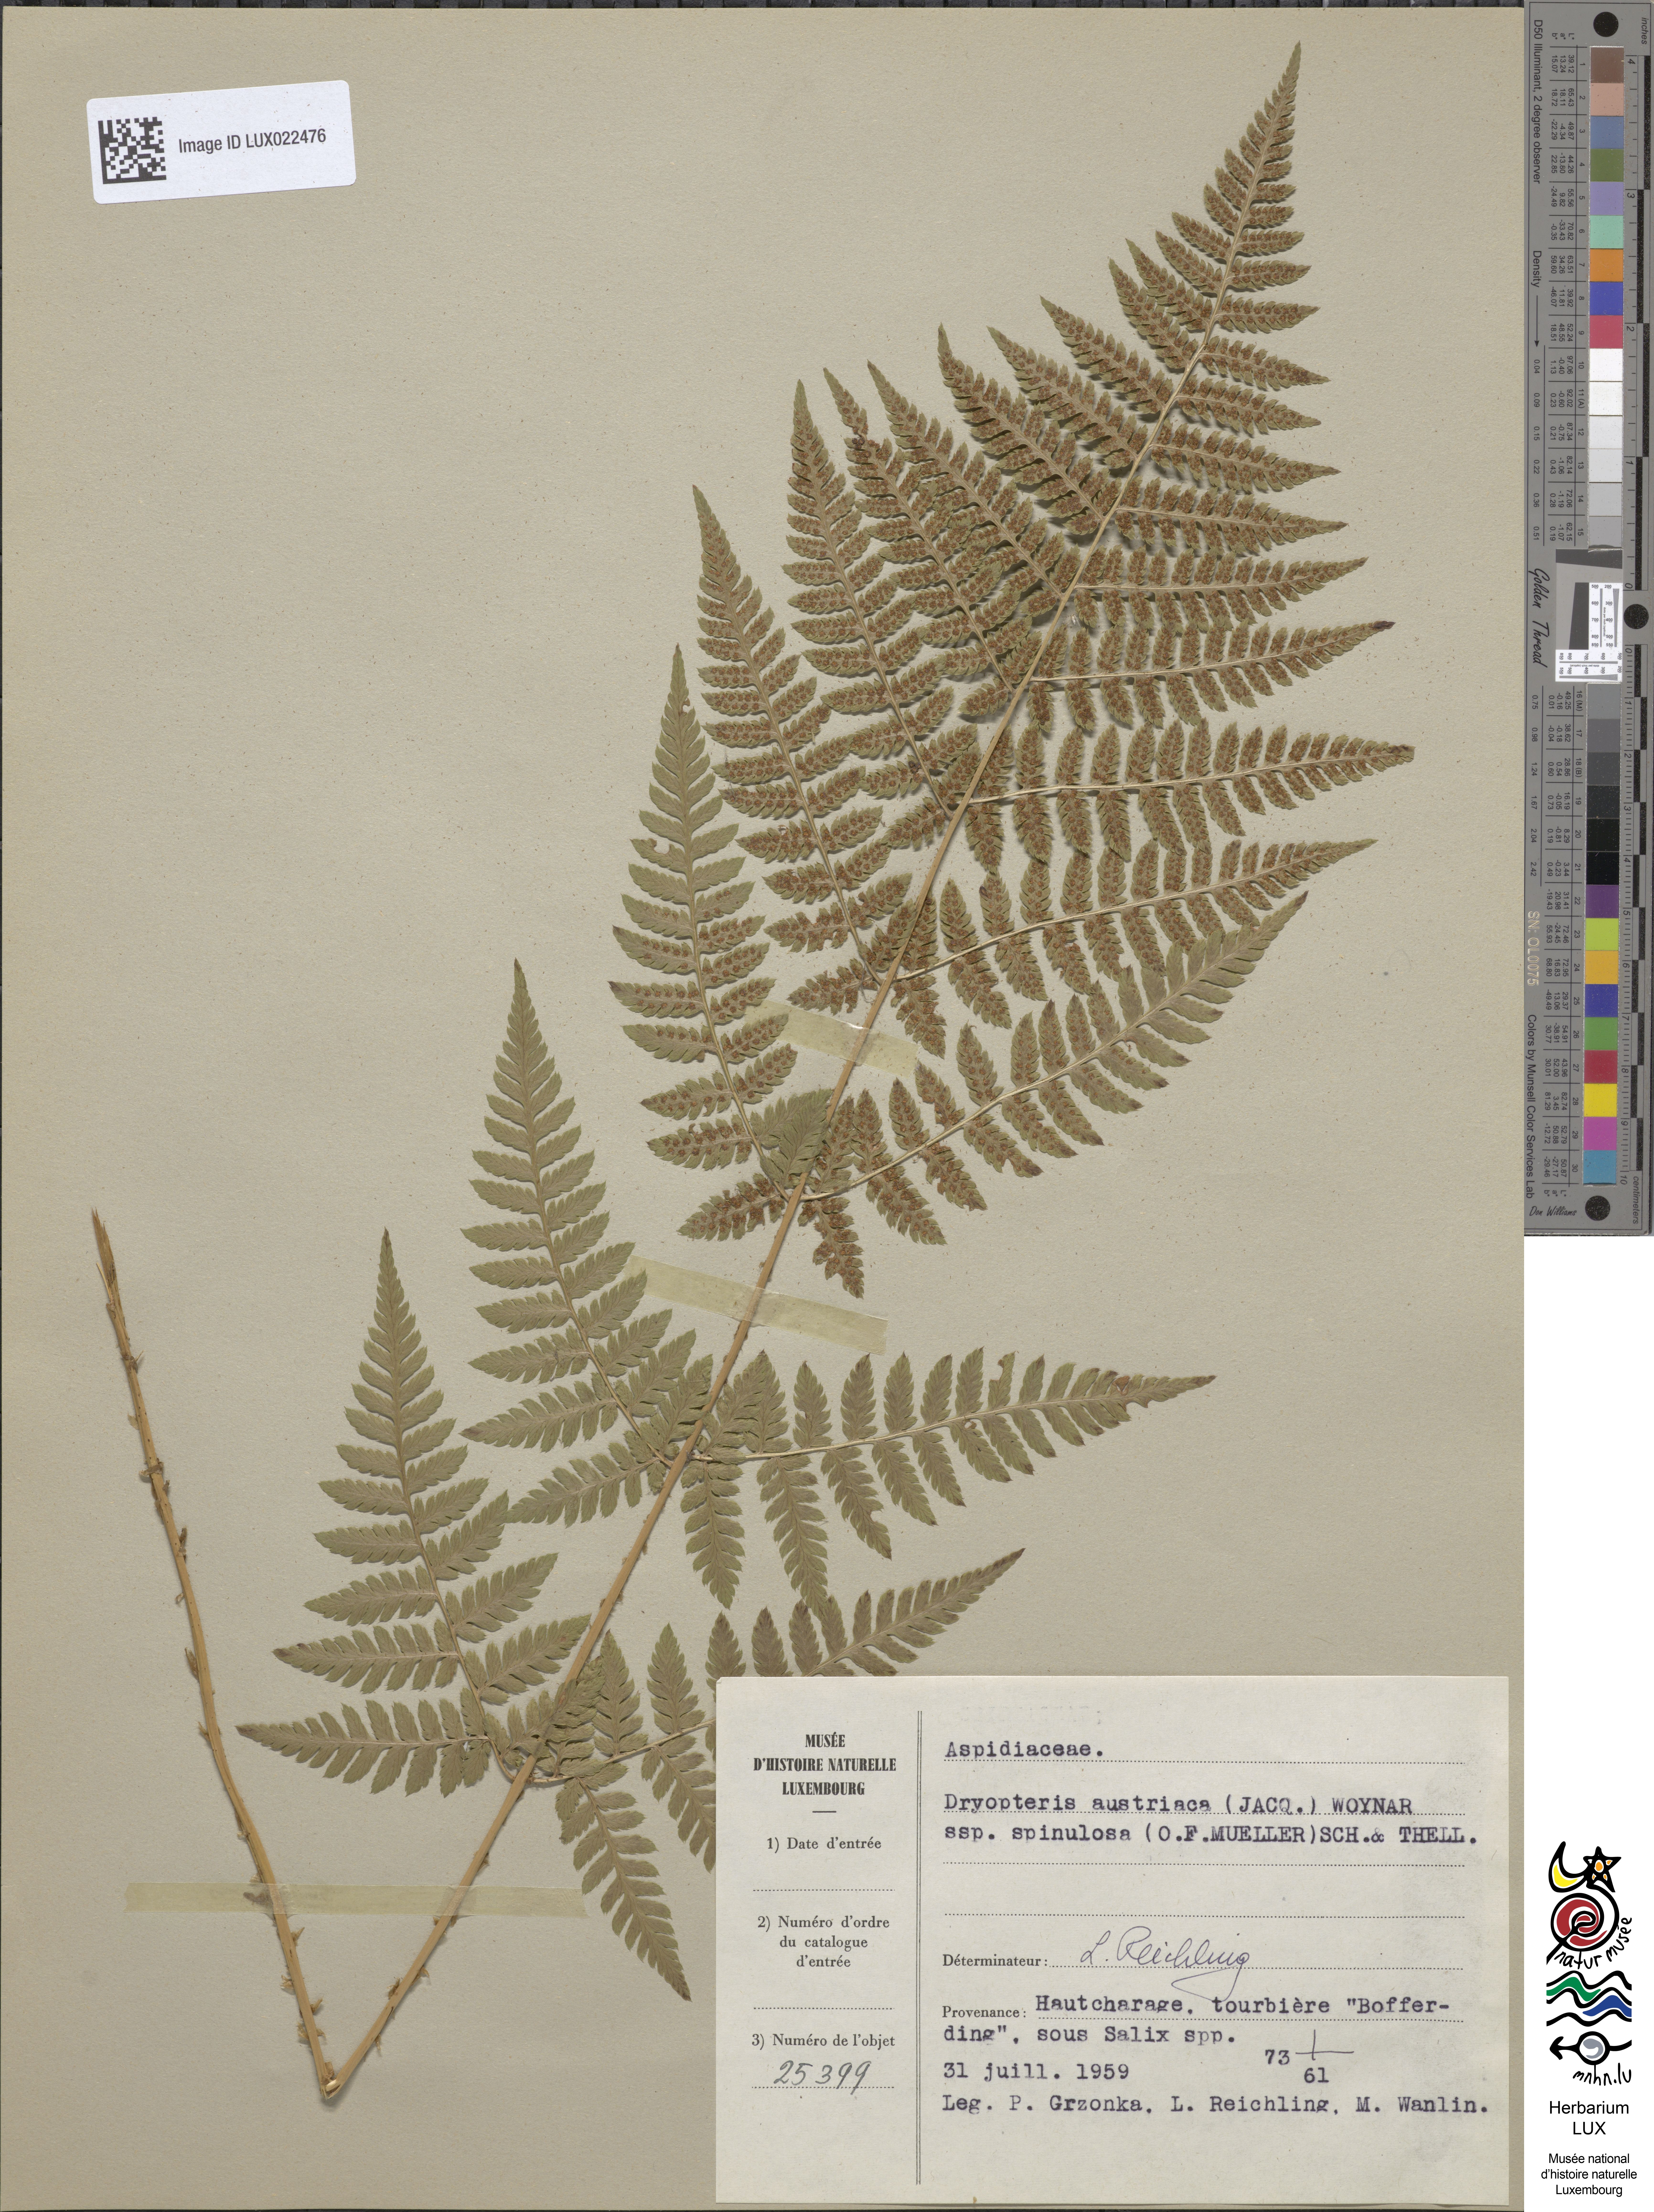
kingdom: Plantae
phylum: Tracheophyta
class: Polypodiopsida
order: Polypodiales
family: Dryopteridaceae
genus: Dryopteris
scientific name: Dryopteris carthusiana
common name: Narrow buckler-fern
